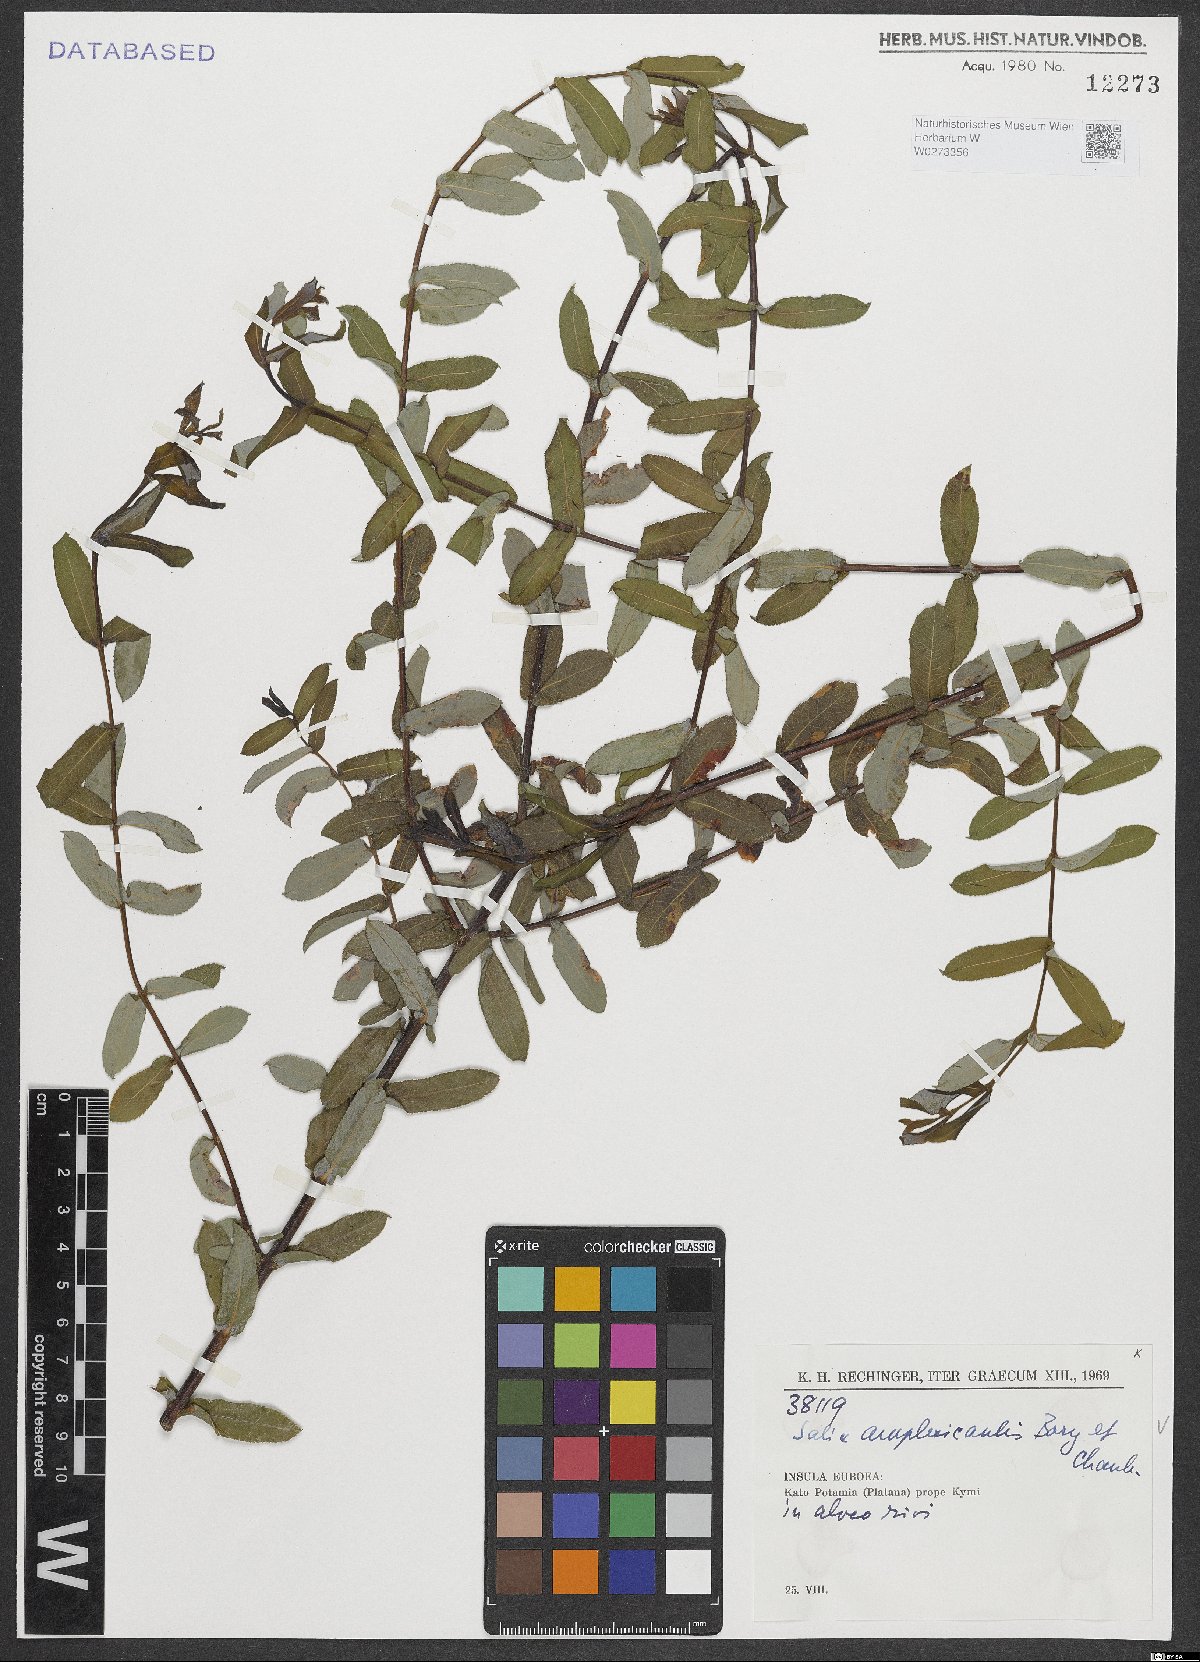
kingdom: Plantae
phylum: Tracheophyta
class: Magnoliopsida
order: Malpighiales
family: Salicaceae
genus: Salix
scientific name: Salix amplexicaulis
